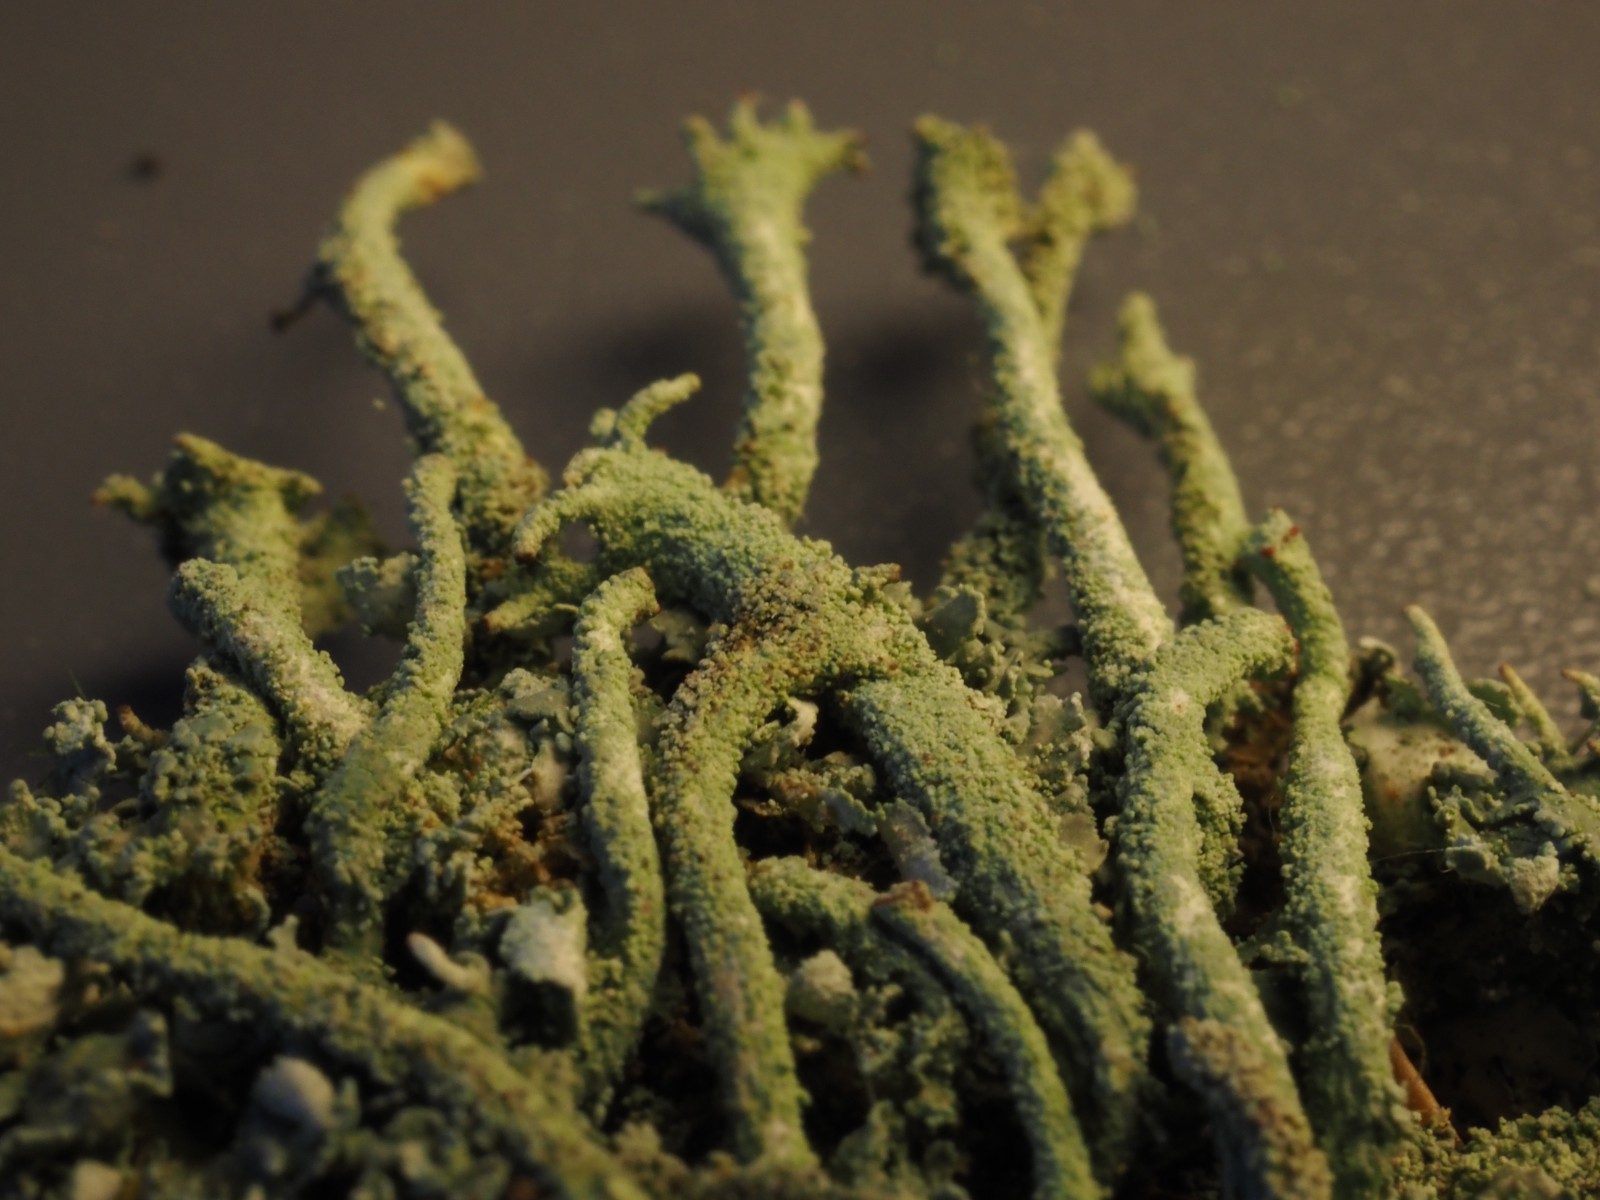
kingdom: Fungi
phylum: Ascomycota
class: Lecanoromycetes
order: Lecanorales
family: Cladoniaceae
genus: Cladonia
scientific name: Cladonia polydactyla
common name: vifte-bægerlav
